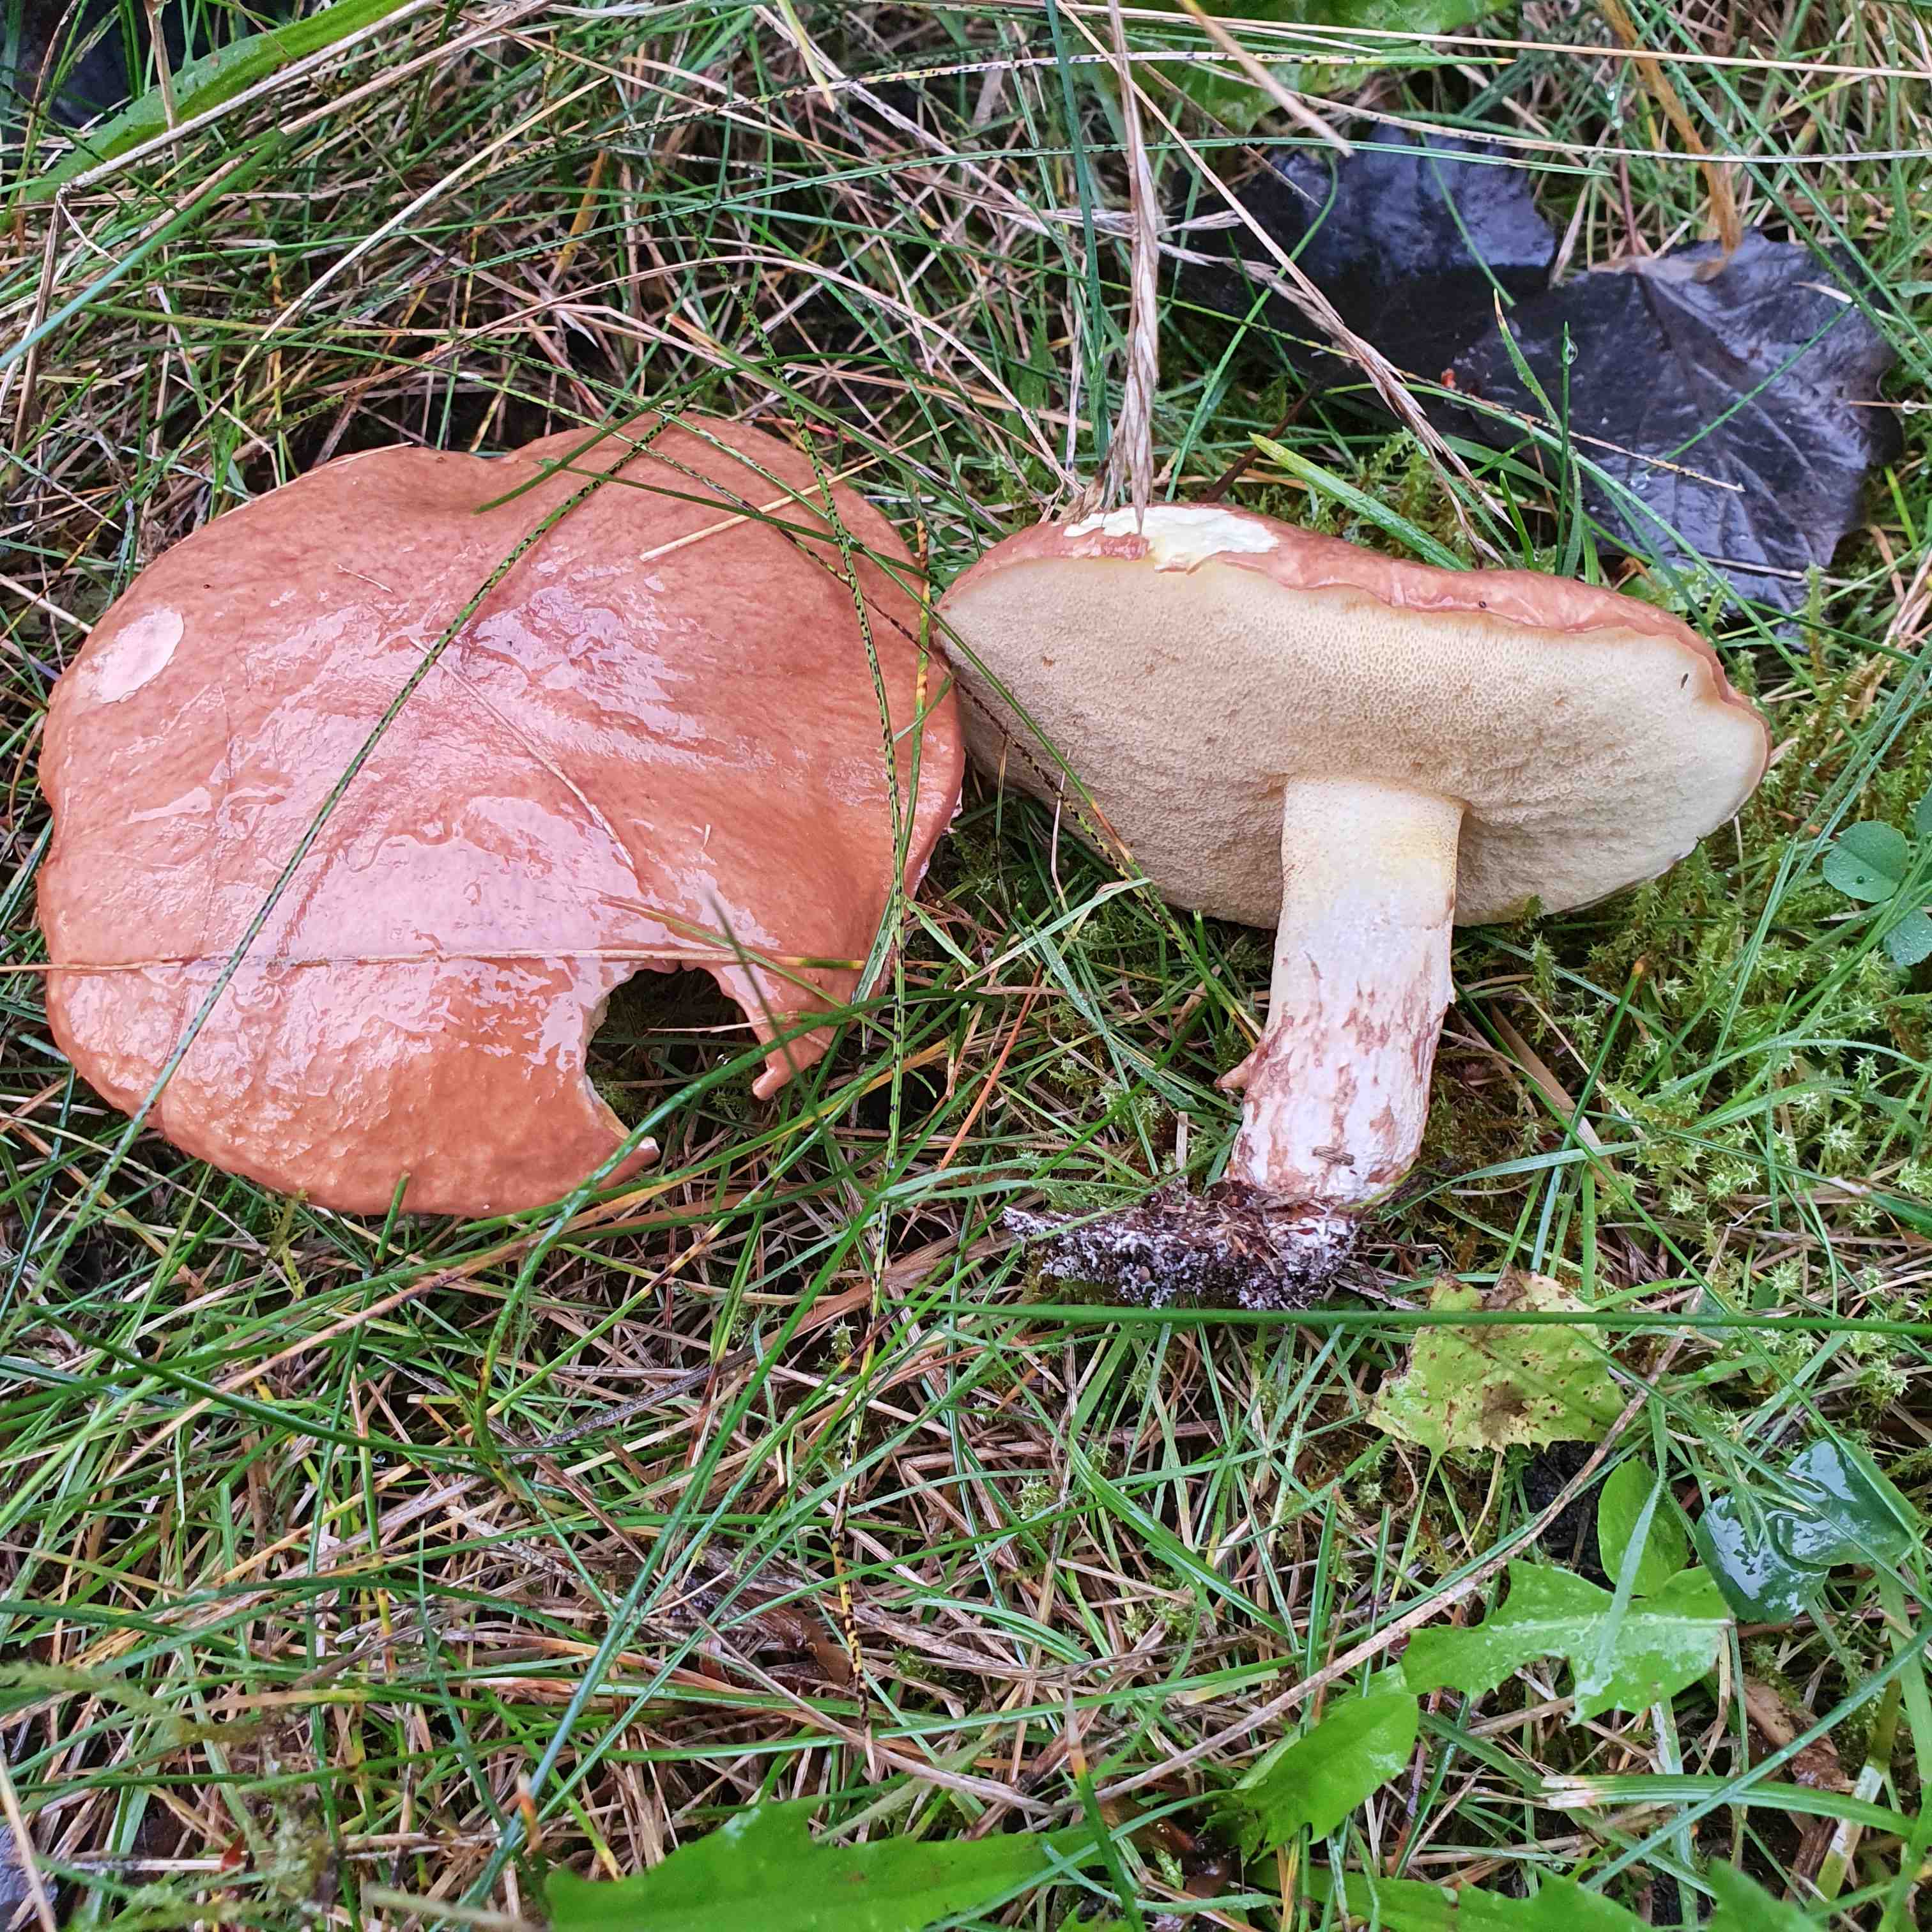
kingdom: Fungi
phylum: Basidiomycota
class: Agaricomycetes
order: Boletales
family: Suillaceae
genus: Suillus
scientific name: Suillus granulatus
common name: kornet slimrørhat
